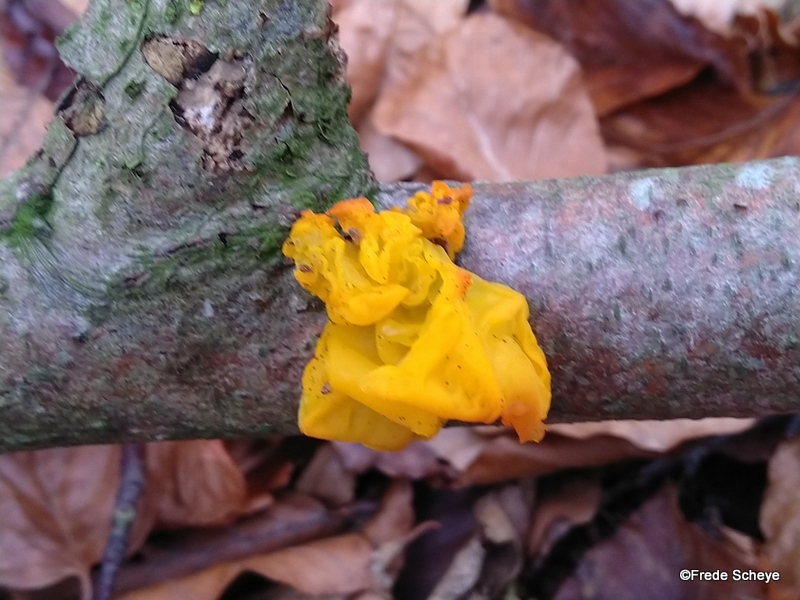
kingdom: Fungi
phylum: Basidiomycota
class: Tremellomycetes
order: Tremellales
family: Tremellaceae
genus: Tremella
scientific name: Tremella mesenterica
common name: gul bævresvamp
